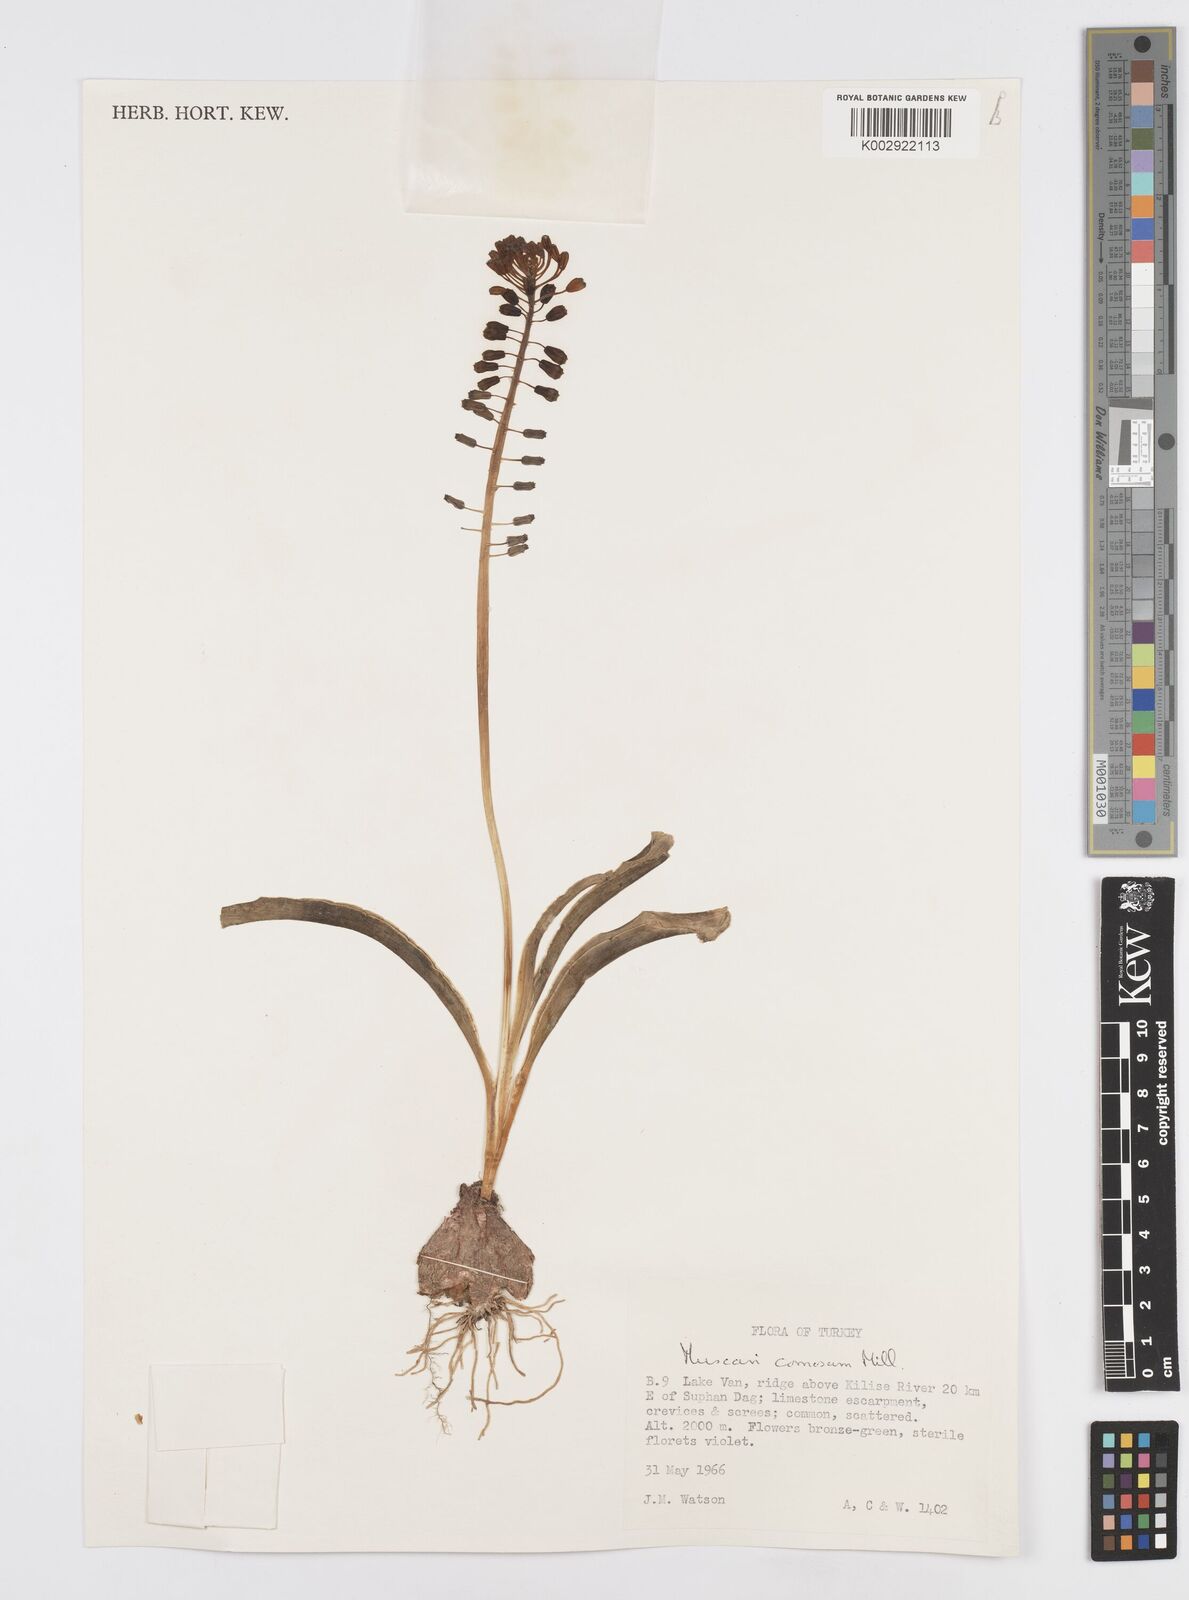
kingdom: Plantae
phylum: Tracheophyta
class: Liliopsida
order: Asparagales
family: Asparagaceae
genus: Muscari
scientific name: Muscari comosum
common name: Tassel hyacinth
